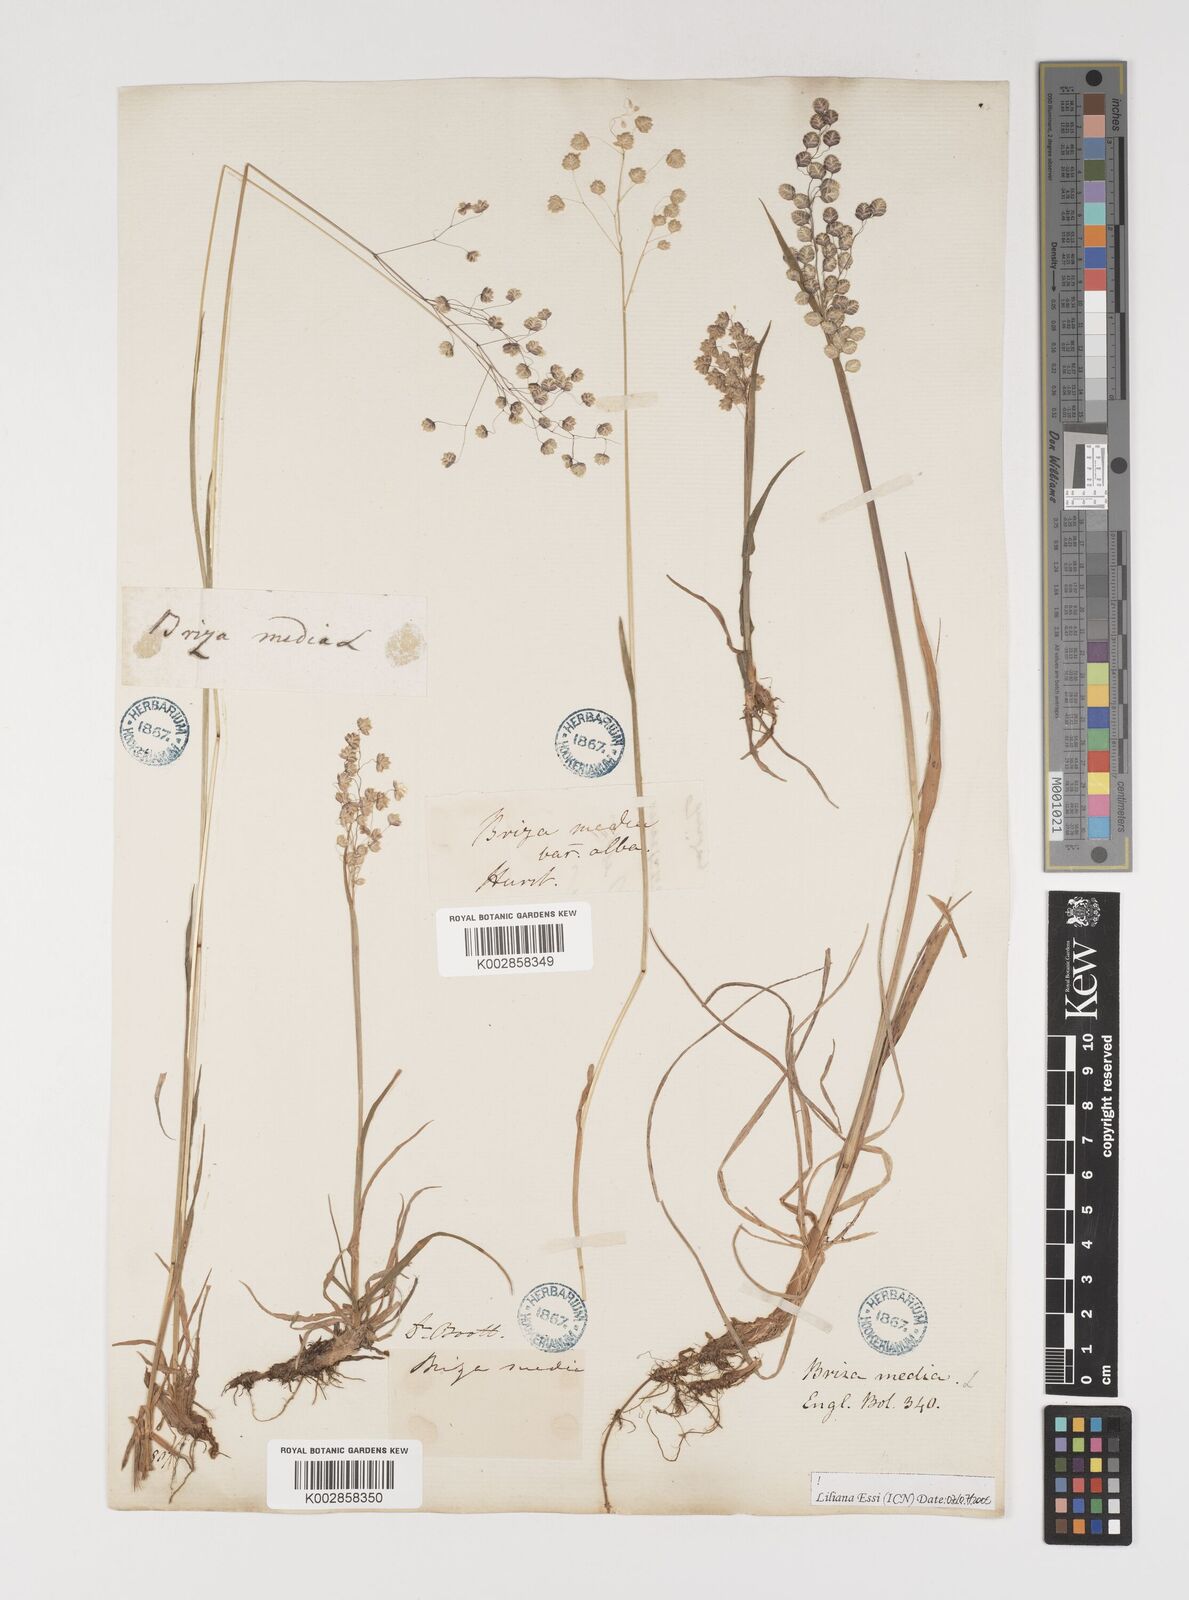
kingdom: Plantae
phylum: Tracheophyta
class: Liliopsida
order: Poales
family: Poaceae
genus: Briza
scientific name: Briza media
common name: Quaking grass
